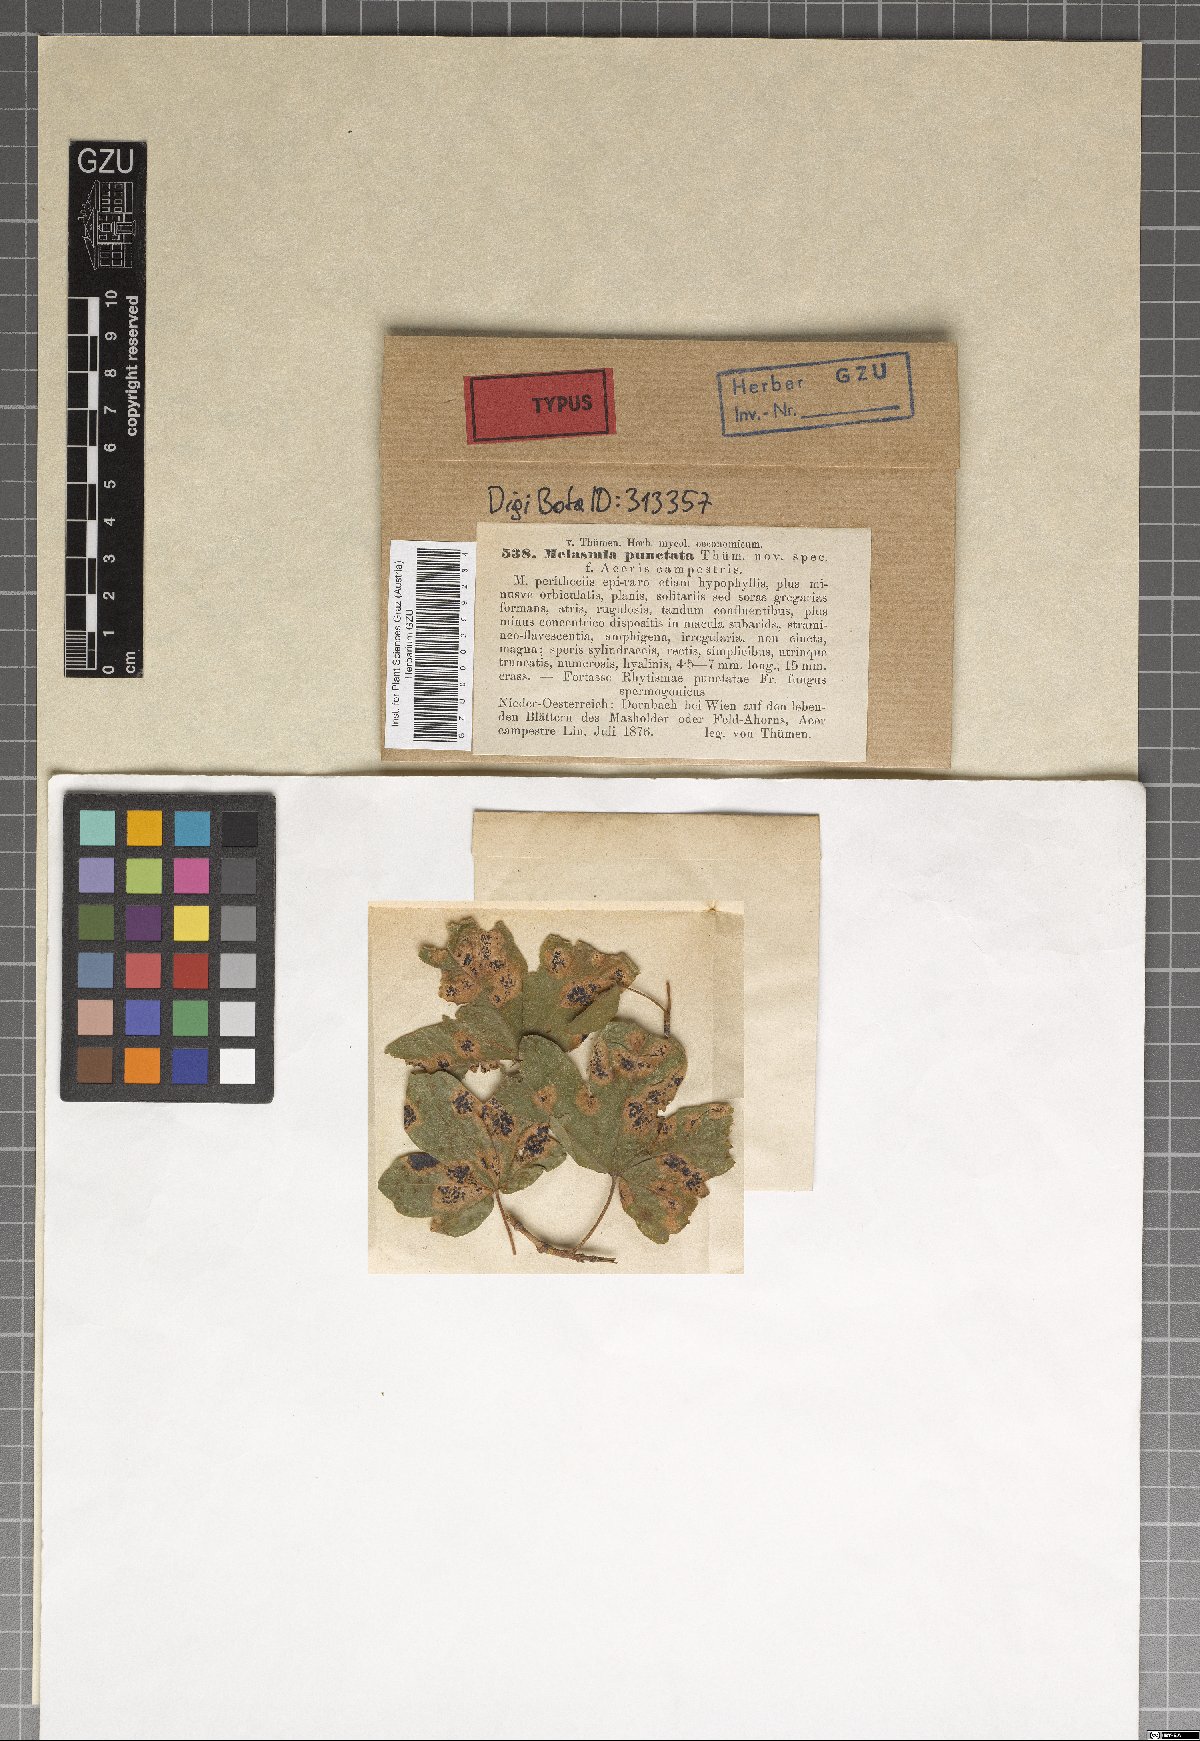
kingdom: Fungi
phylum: Ascomycota
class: Leotiomycetes
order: Rhytismatales
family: Rhytismataceae
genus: Rhytisma
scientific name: Rhytisma punctatum
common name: Speckled tar spot
